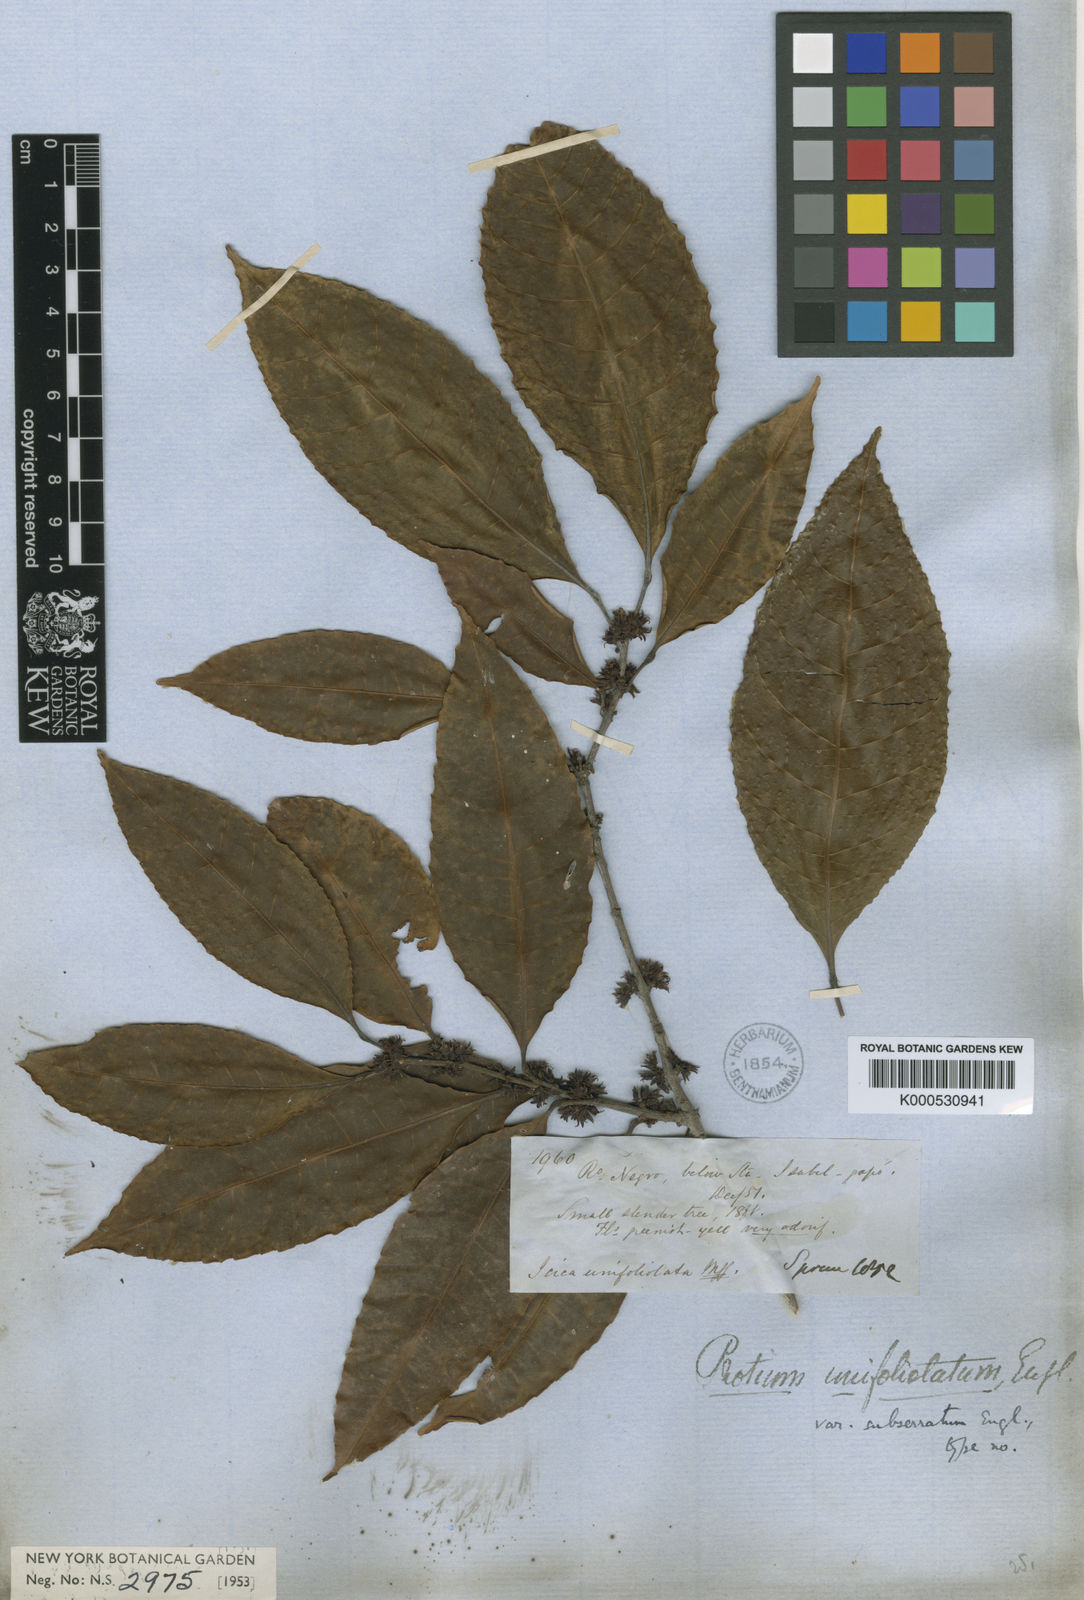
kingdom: Plantae
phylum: Tracheophyta
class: Magnoliopsida
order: Sapindales
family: Burseraceae
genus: Protium
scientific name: Protium unifoliolatum
